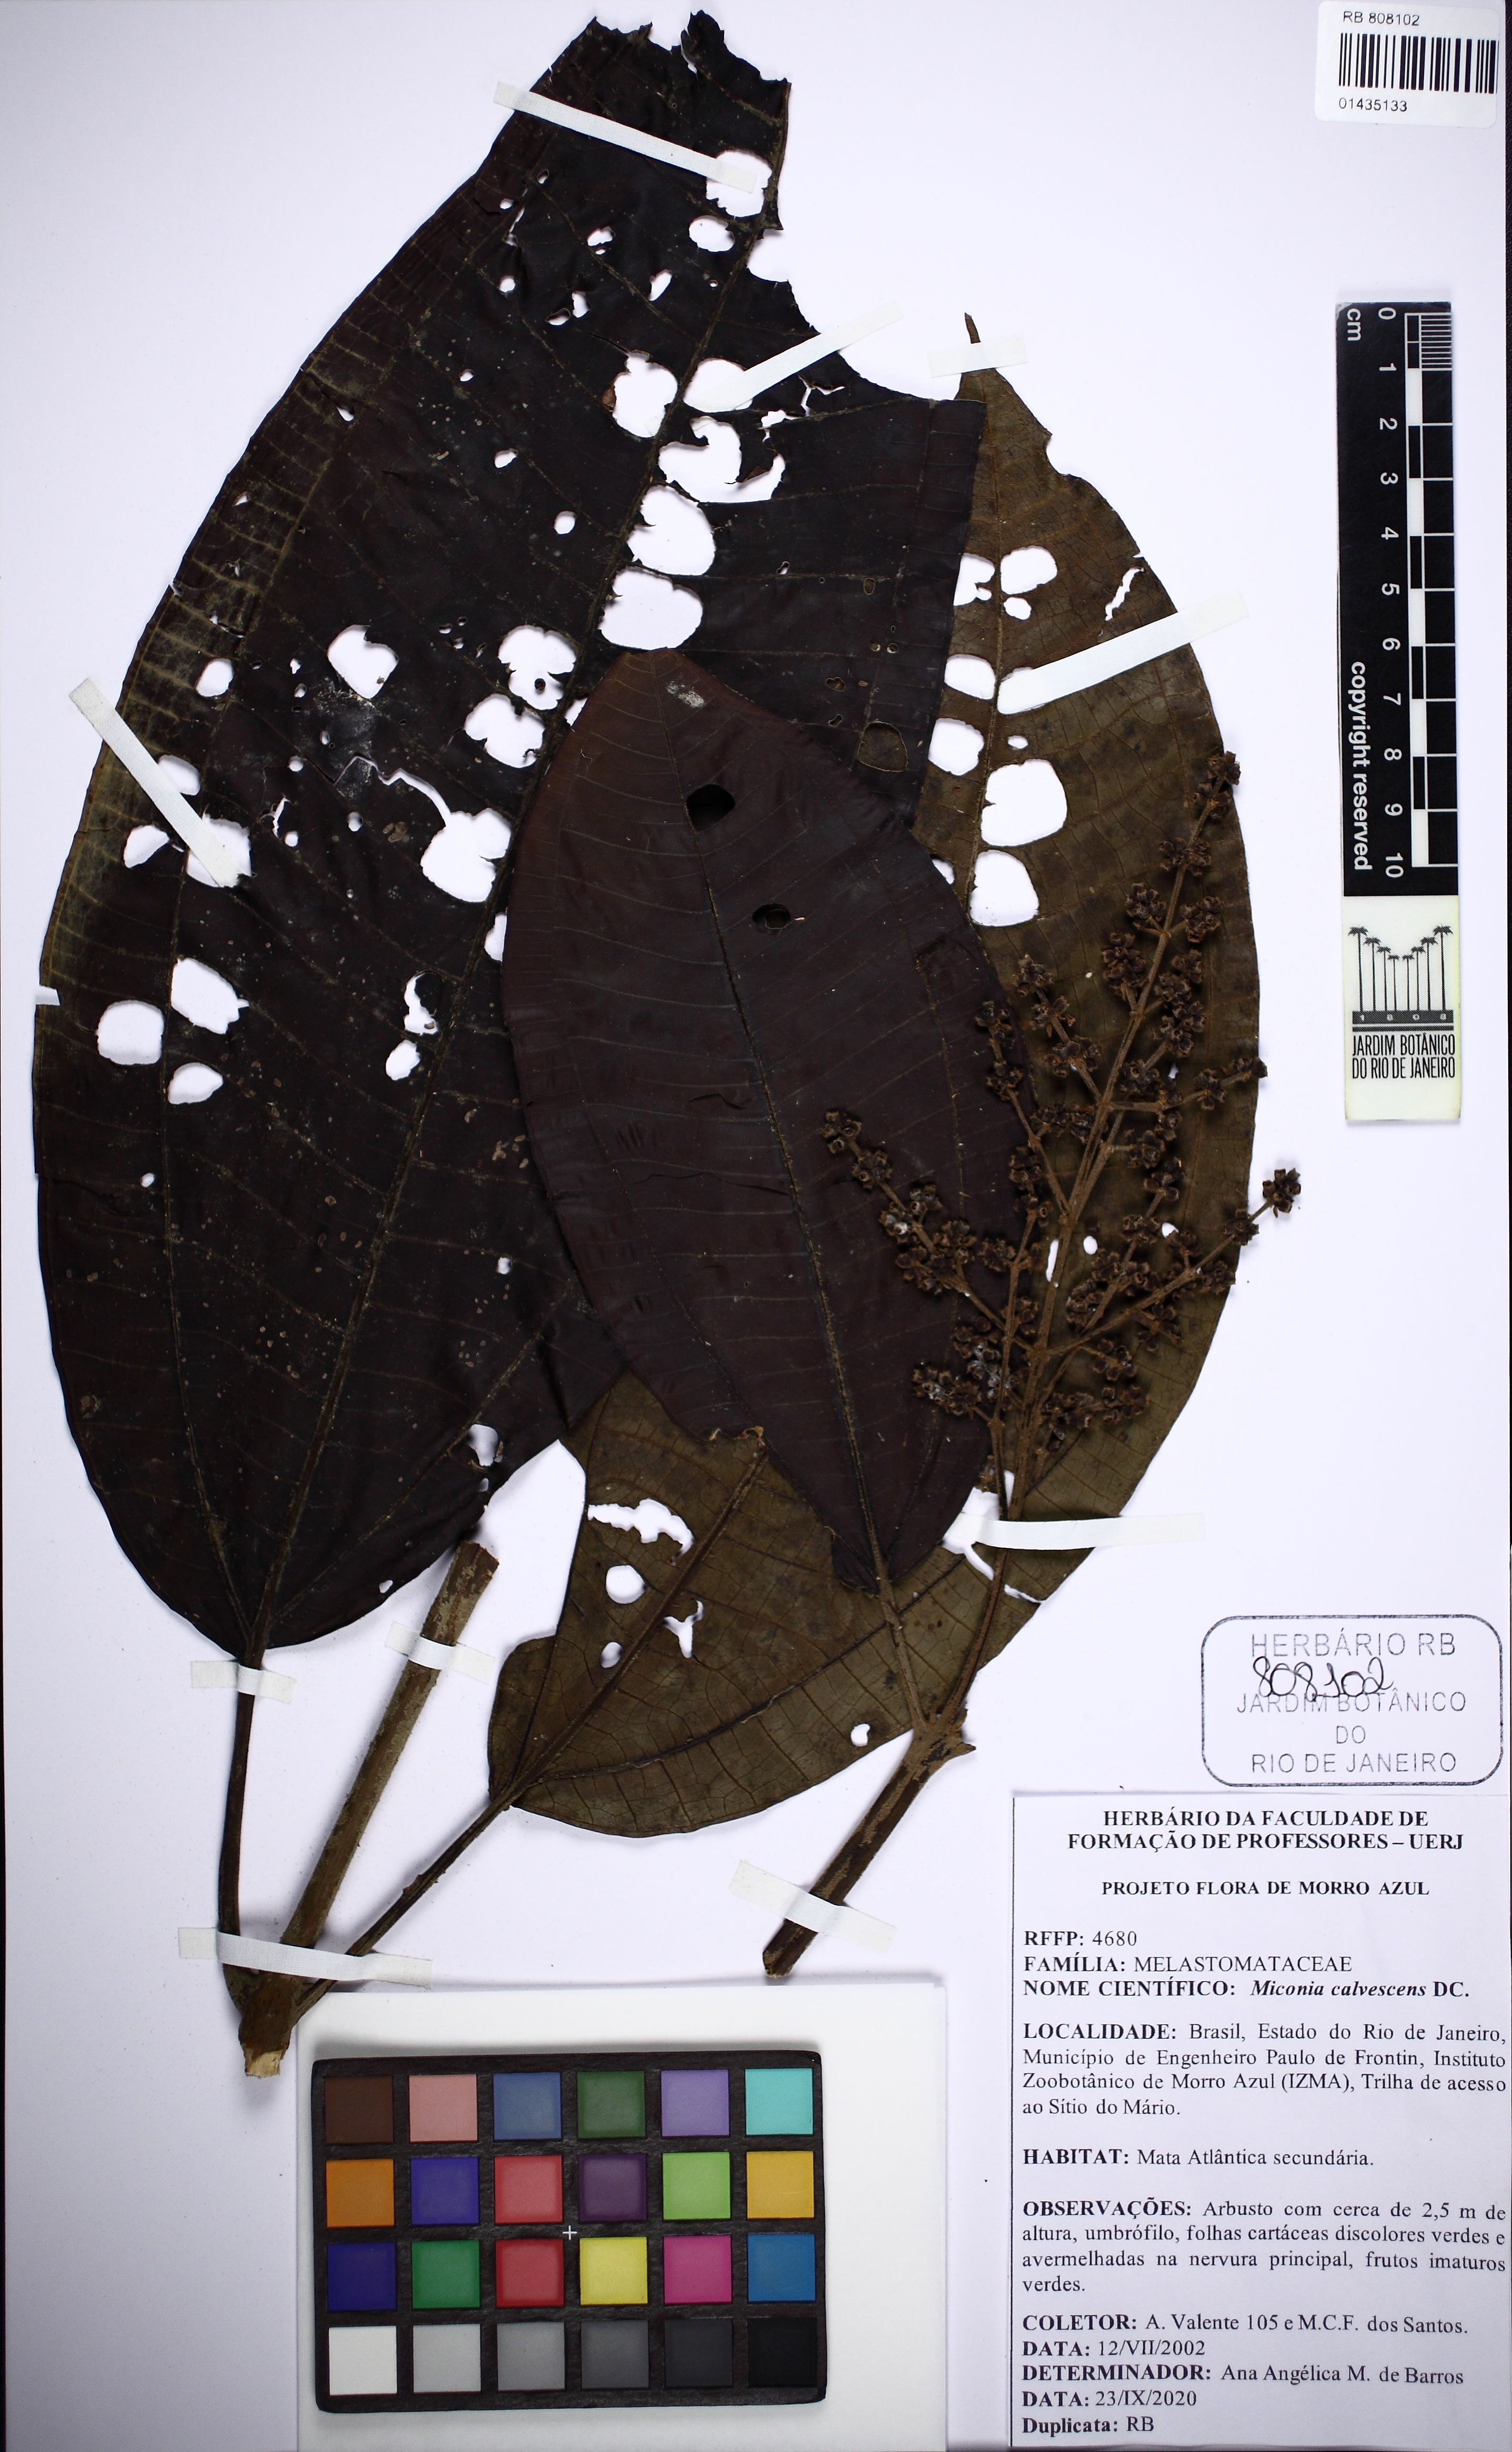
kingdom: Plantae
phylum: Tracheophyta
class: Magnoliopsida
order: Myrtales
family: Melastomataceae
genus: Miconia
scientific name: Miconia calvescens
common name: Purple plague
